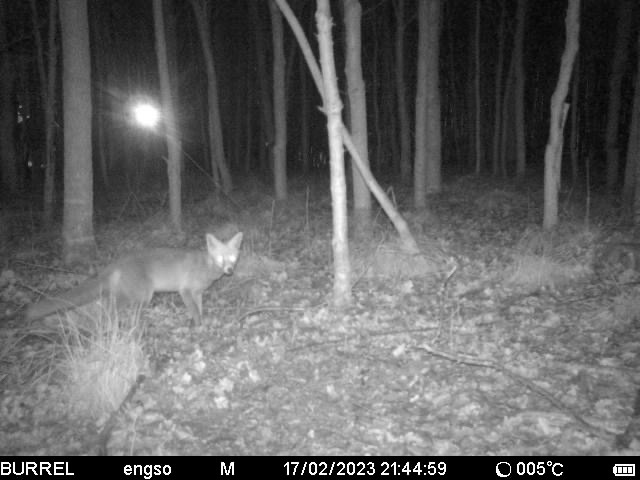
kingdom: Animalia
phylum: Chordata
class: Mammalia
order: Carnivora
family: Canidae
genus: Vulpes
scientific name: Vulpes vulpes
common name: Ræv
